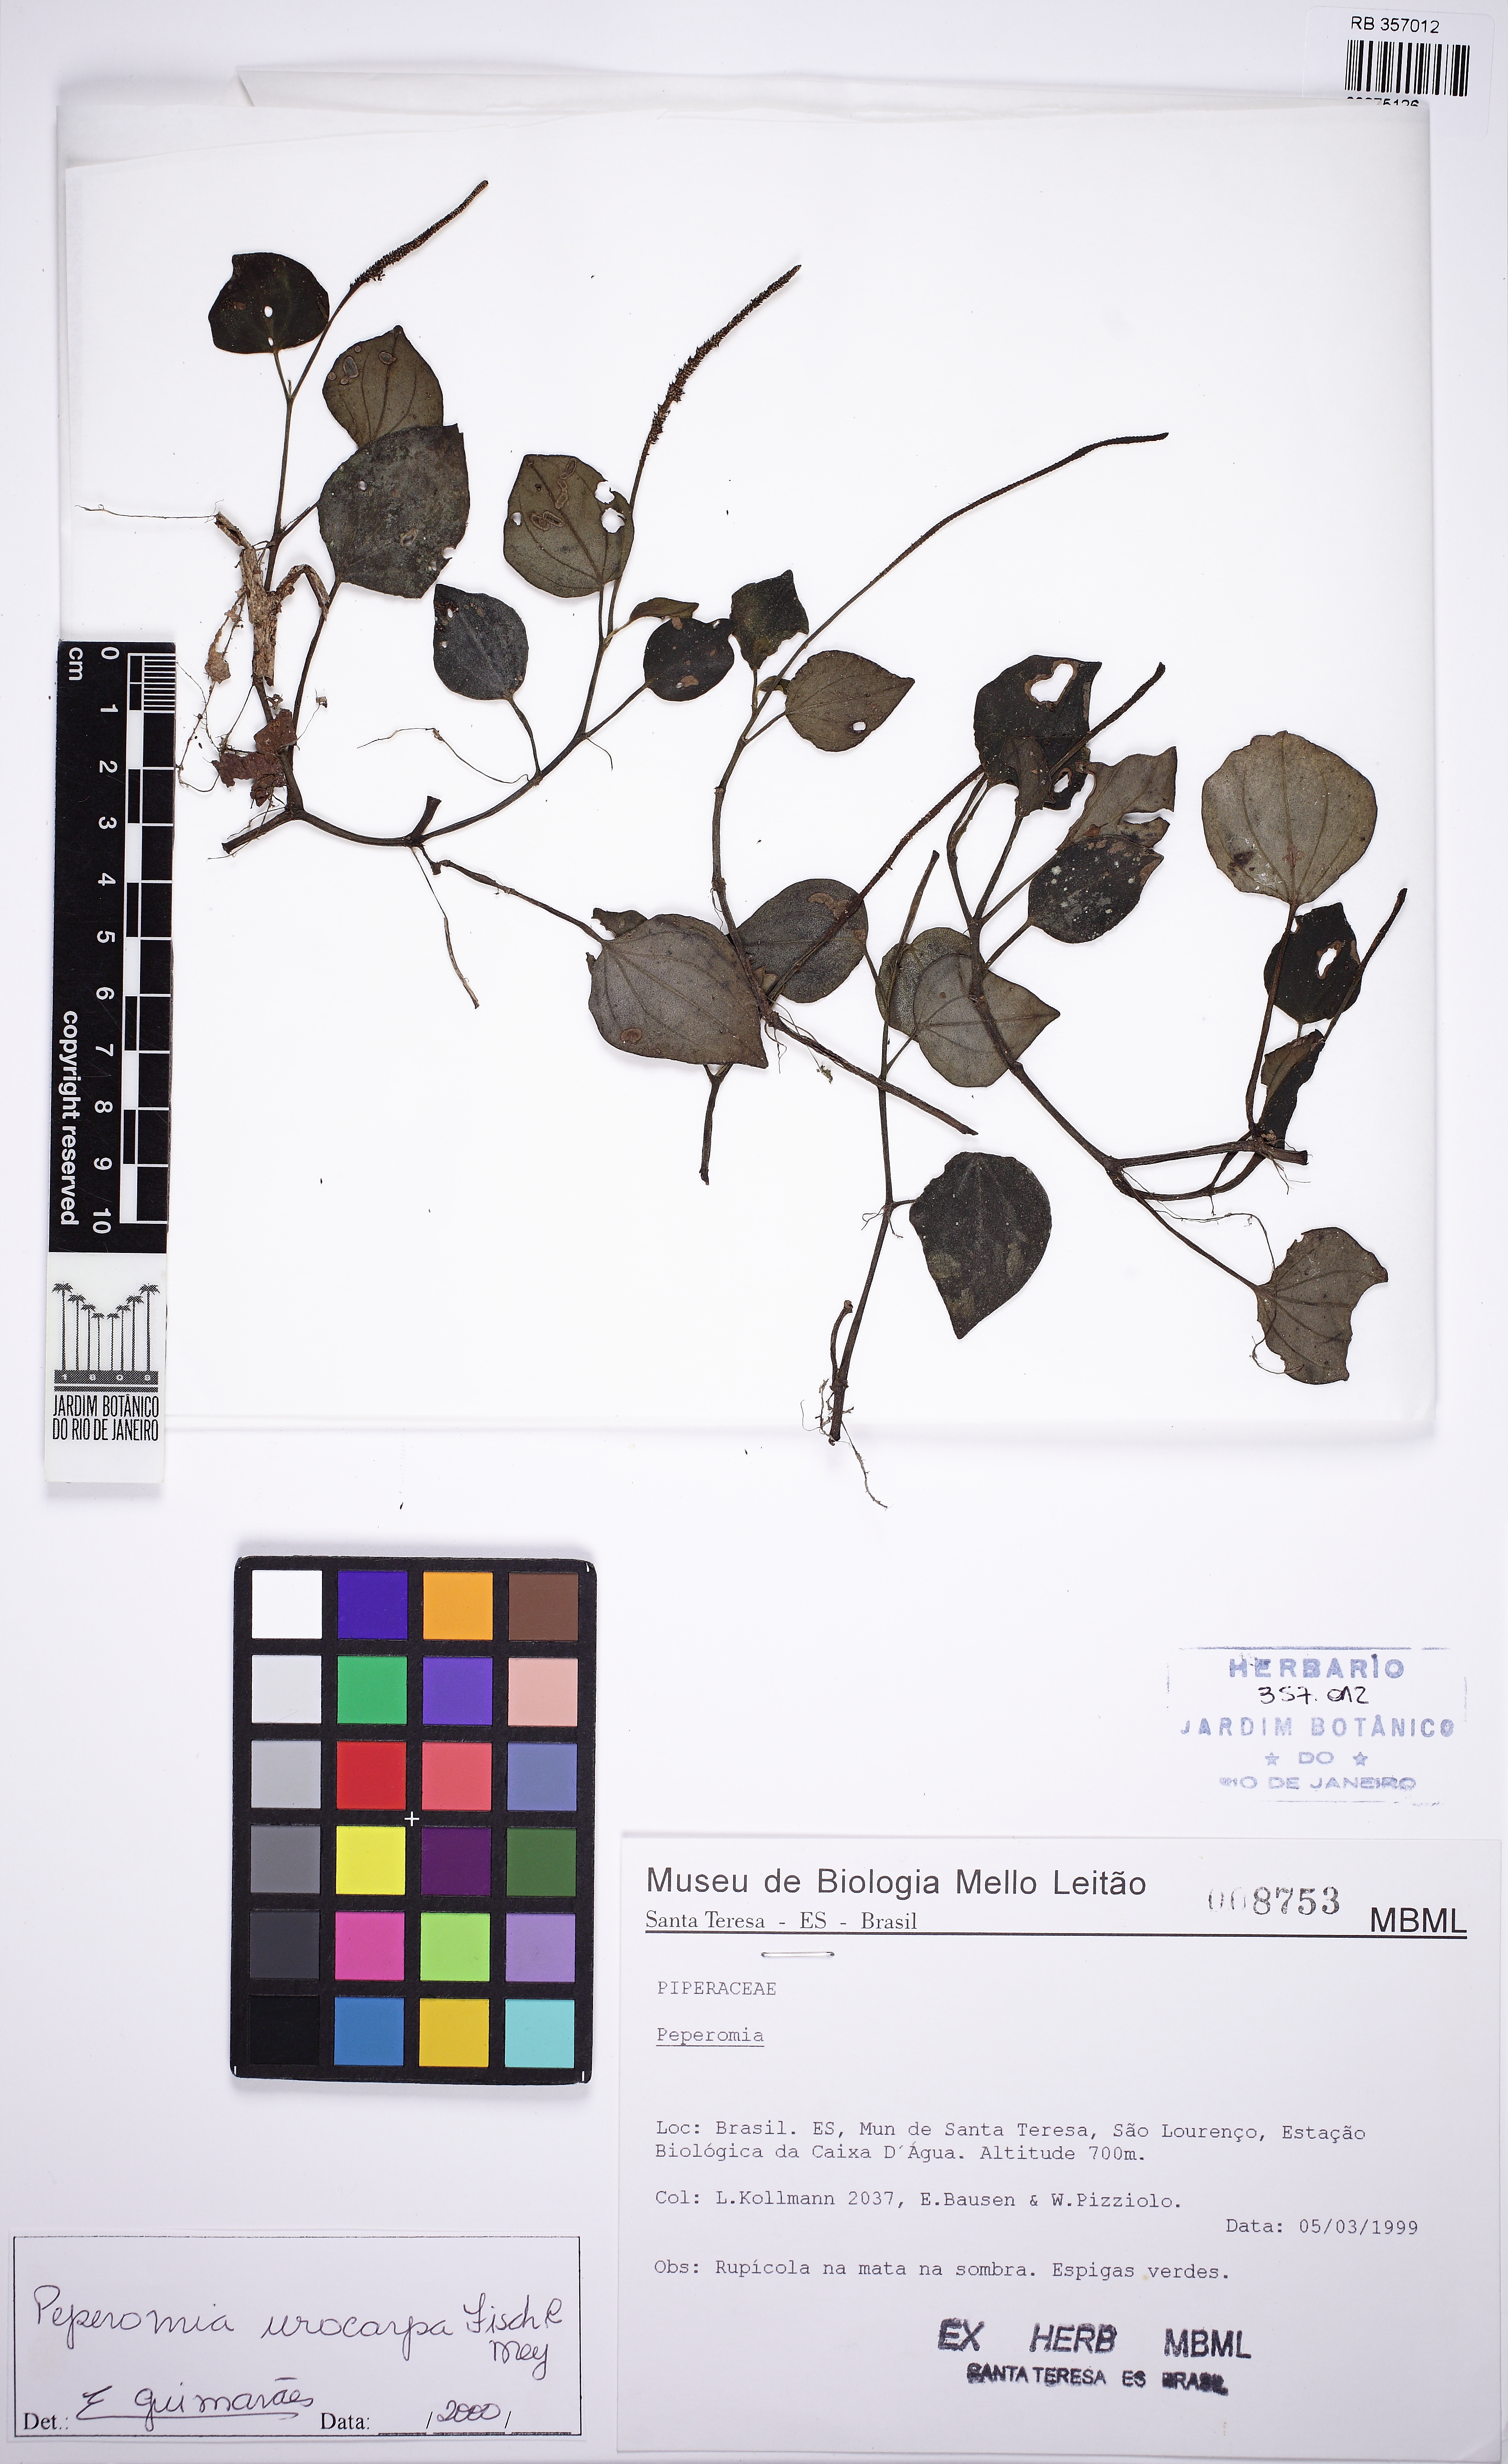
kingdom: Plantae
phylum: Tracheophyta
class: Magnoliopsida
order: Piperales
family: Piperaceae
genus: Peperomia
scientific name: Peperomia urocarpa
